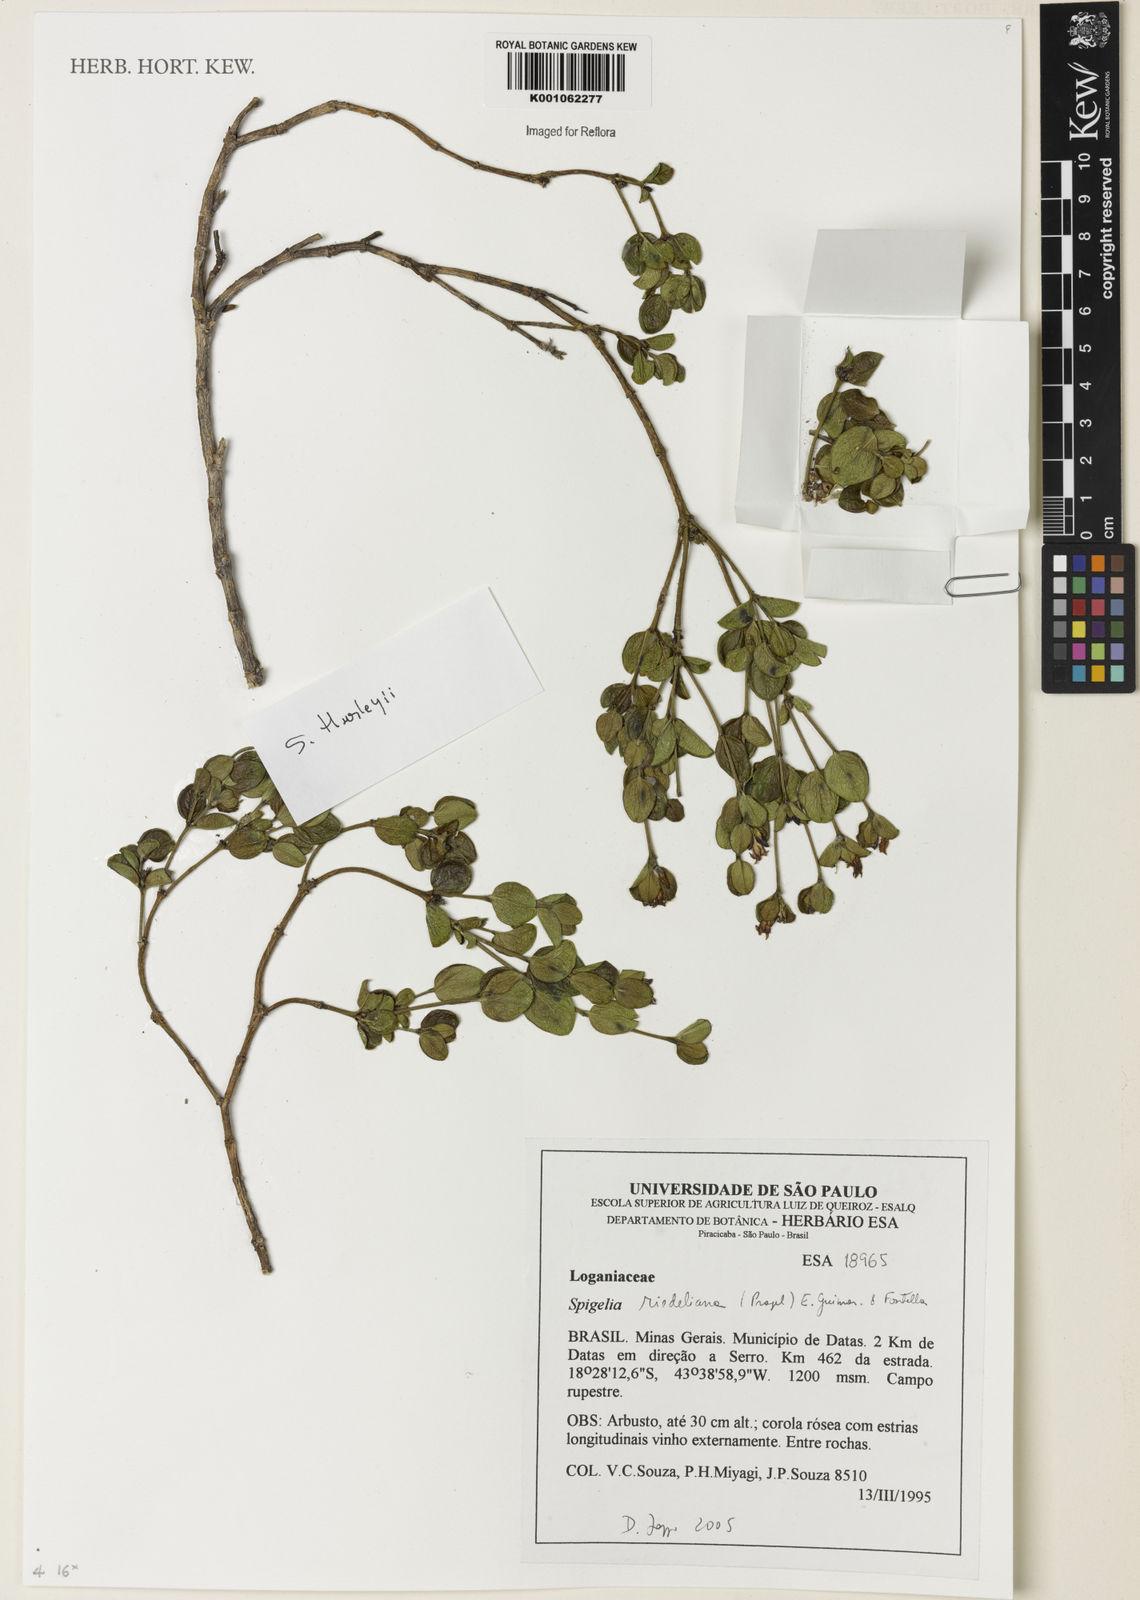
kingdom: Plantae
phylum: Tracheophyta
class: Magnoliopsida
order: Gentianales
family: Loganiaceae
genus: Spigelia
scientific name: Spigelia riedeliana
